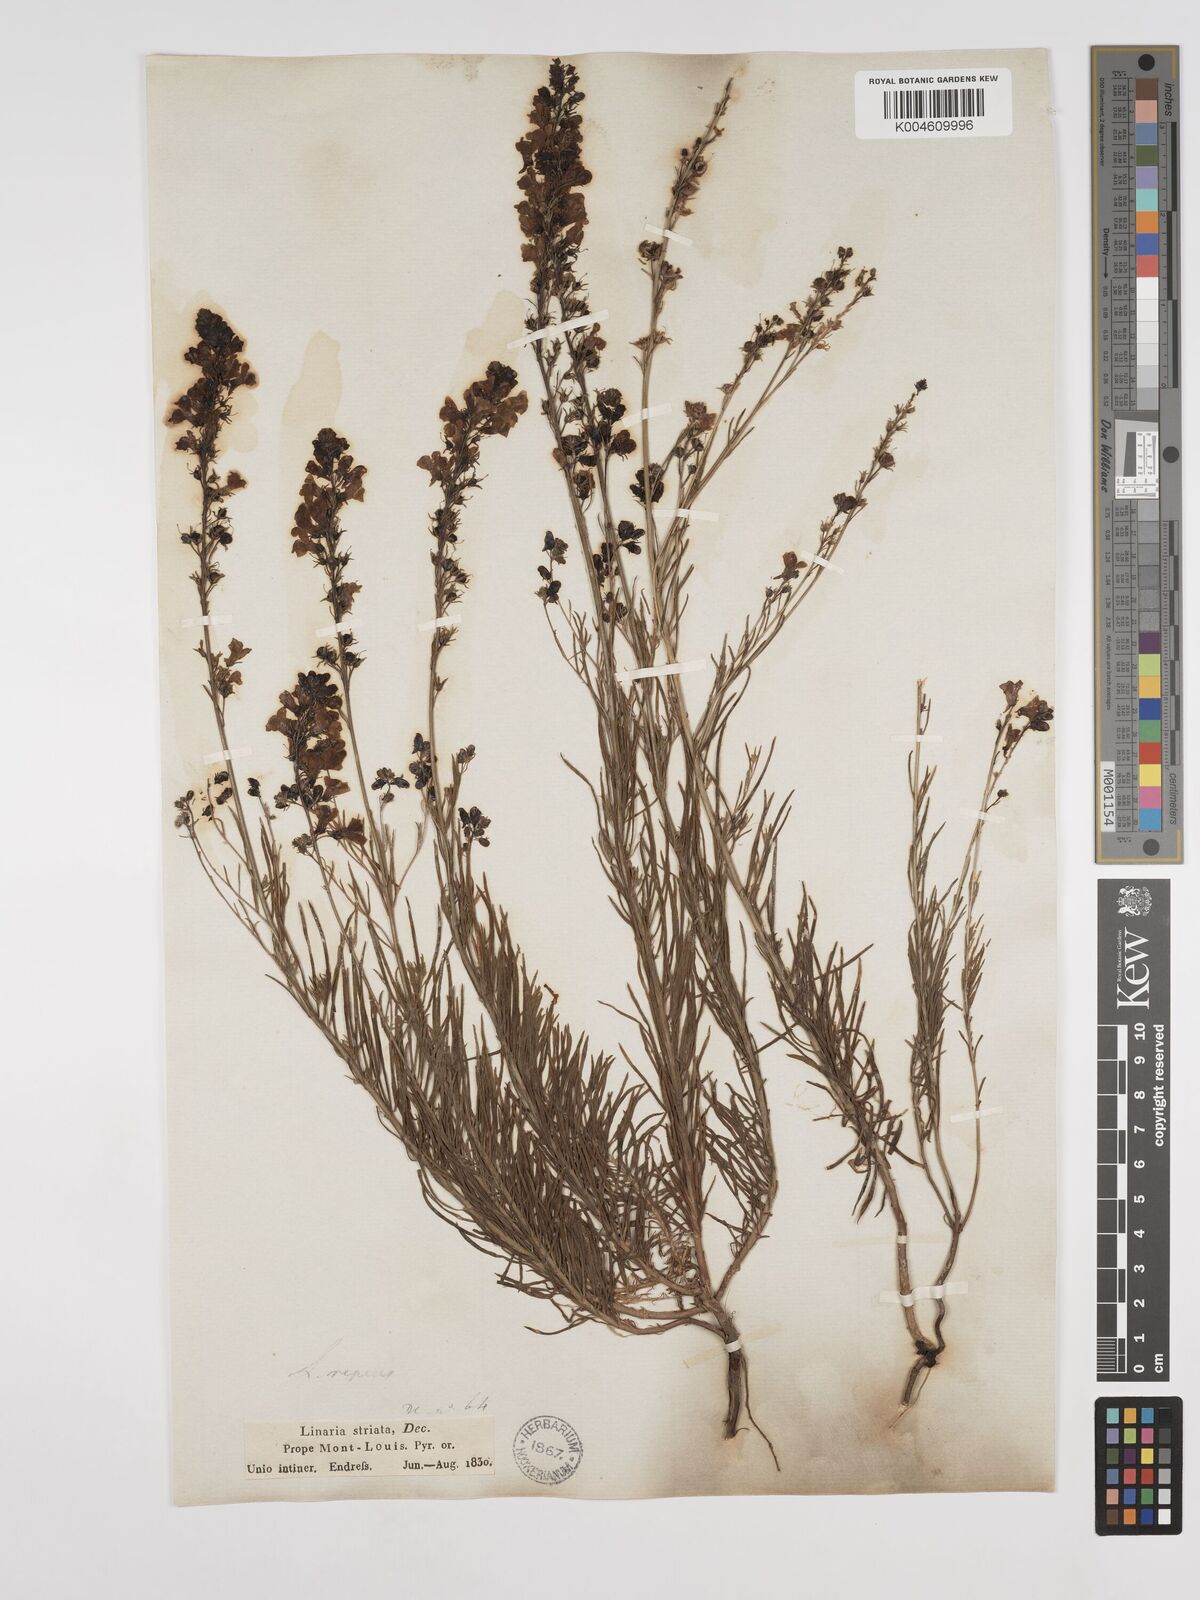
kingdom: Plantae
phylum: Tracheophyta
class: Magnoliopsida
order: Lamiales
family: Plantaginaceae
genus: Linaria
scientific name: Linaria repens
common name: Pale toadflax
